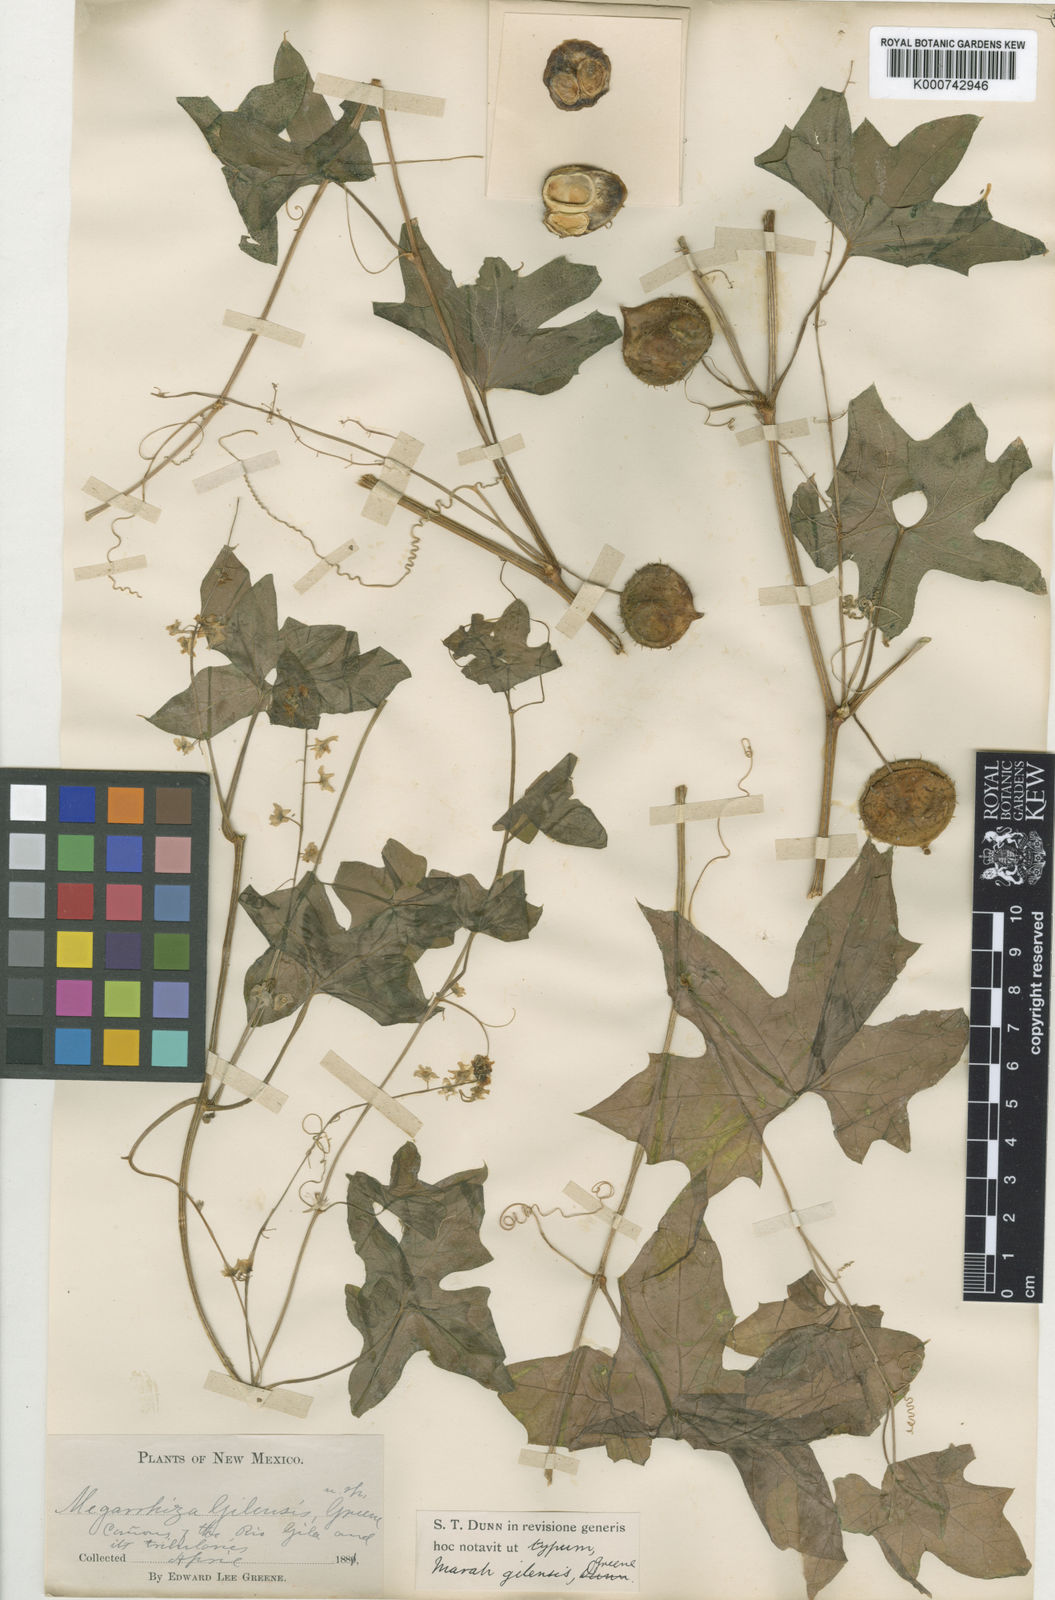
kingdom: Plantae
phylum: Tracheophyta
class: Magnoliopsida
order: Cucurbitales
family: Cucurbitaceae
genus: Marah
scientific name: Marah gilensis
